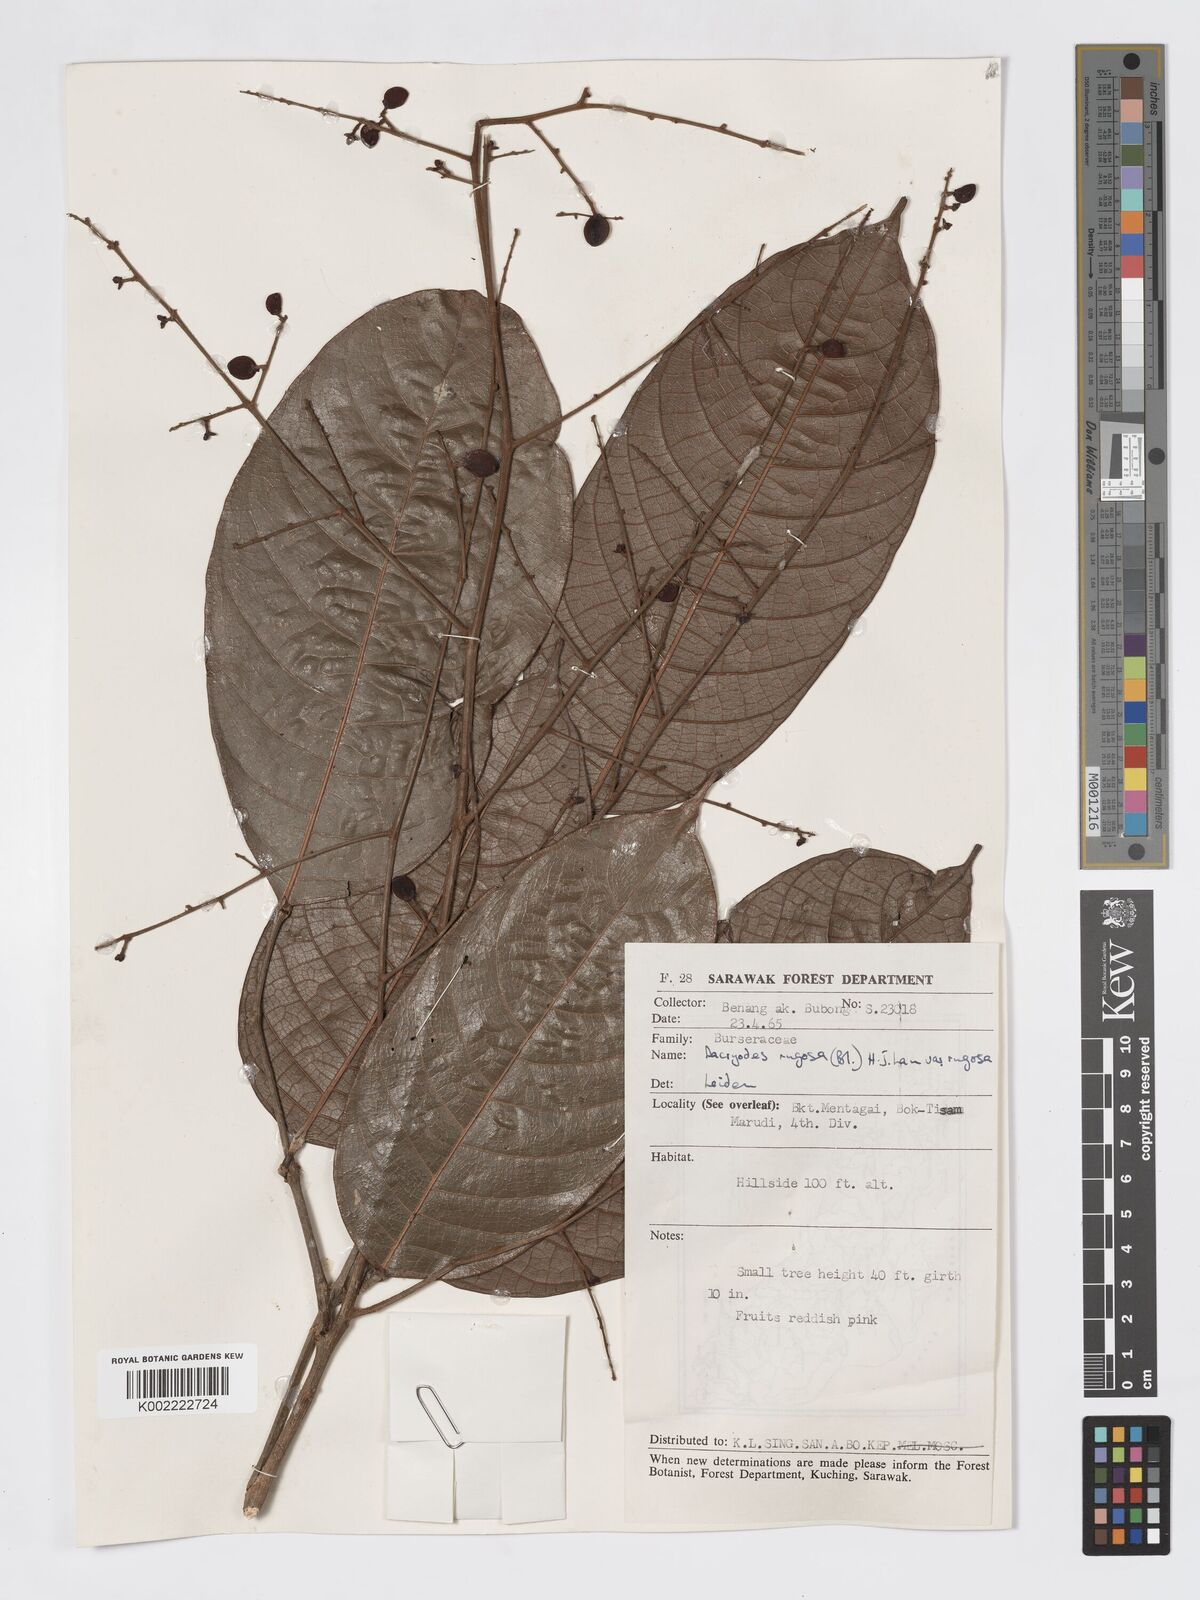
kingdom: Plantae
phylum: Tracheophyta
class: Magnoliopsida
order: Sapindales
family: Burseraceae
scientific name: Burseraceae
